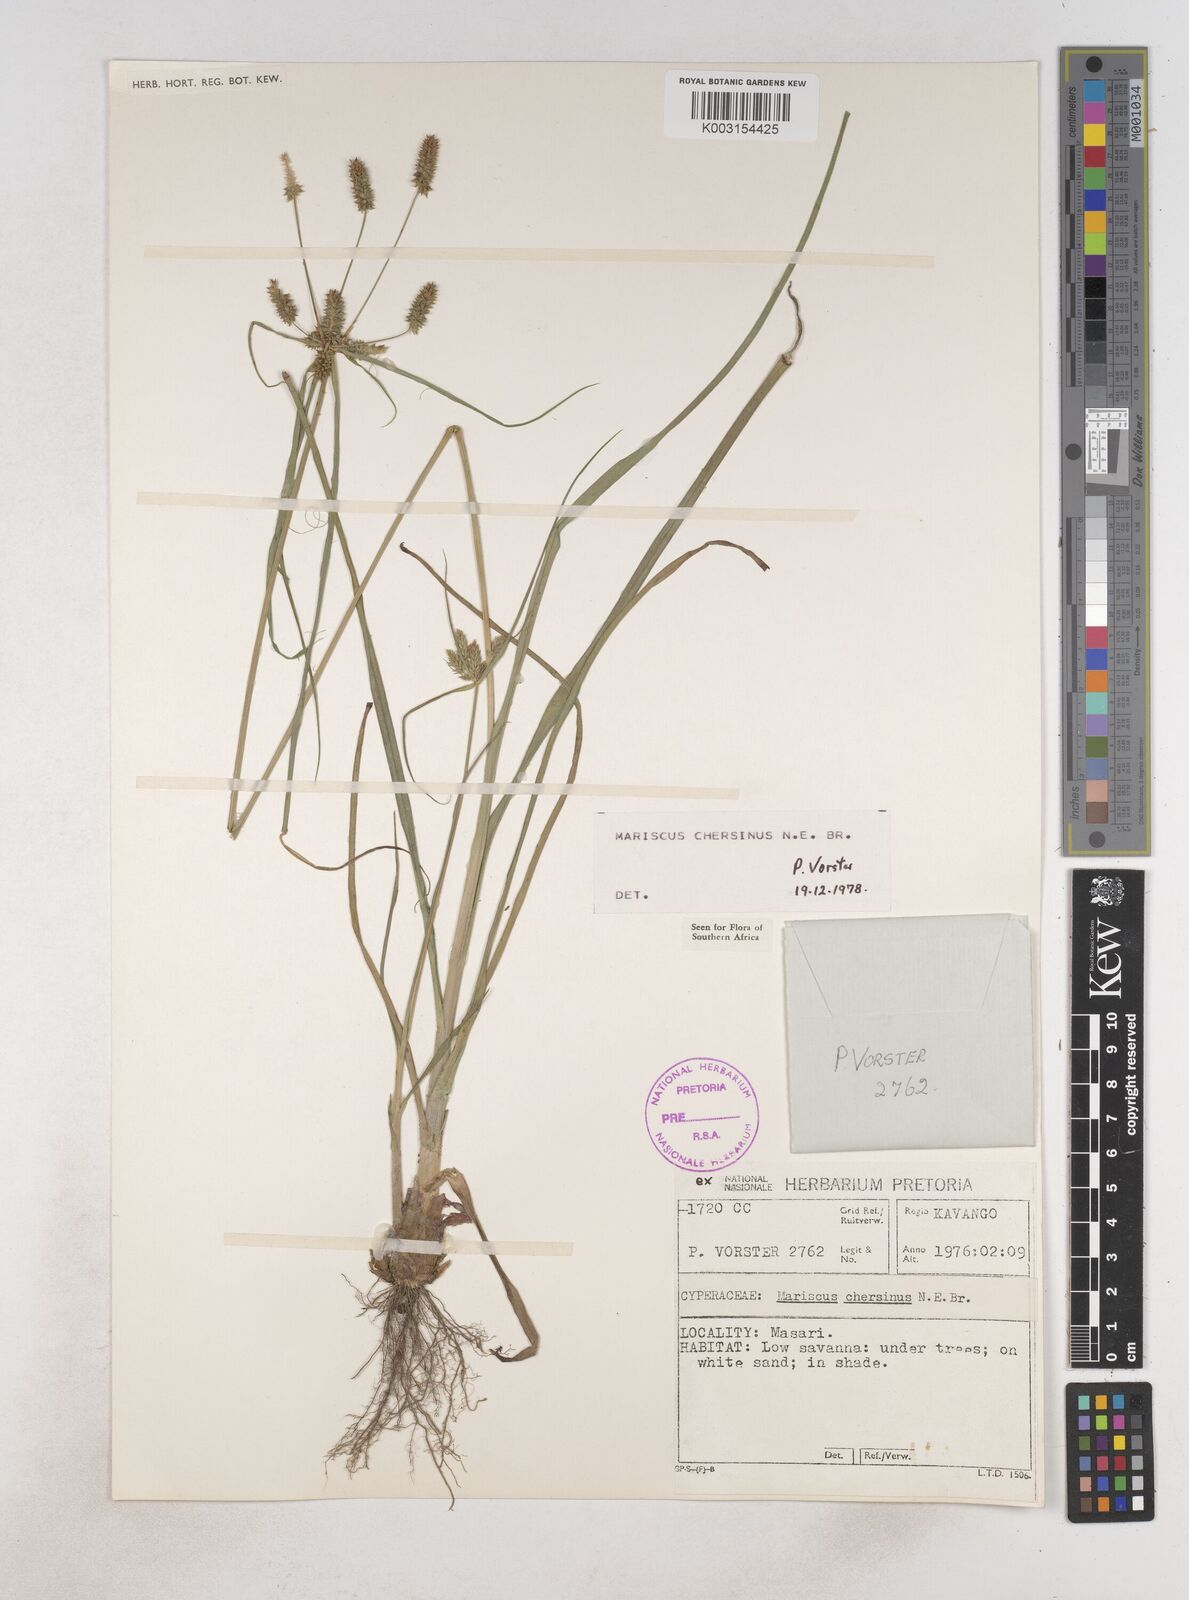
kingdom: Plantae
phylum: Tracheophyta
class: Liliopsida
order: Poales
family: Cyperaceae
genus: Cyperus
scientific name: Cyperus chersinus
